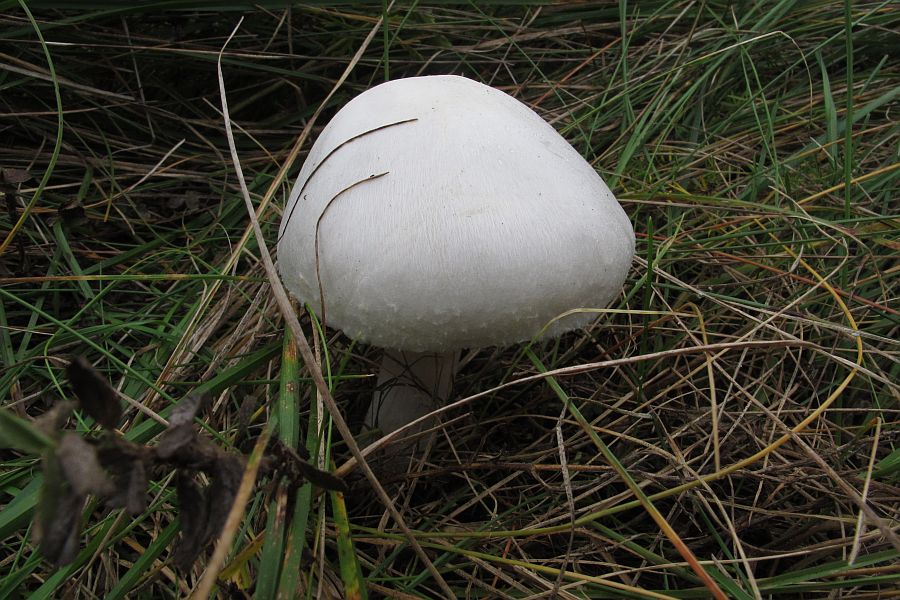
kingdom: Fungi
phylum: Basidiomycota
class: Agaricomycetes
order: Agaricales
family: Agaricaceae
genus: Agaricus
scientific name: Agaricus
